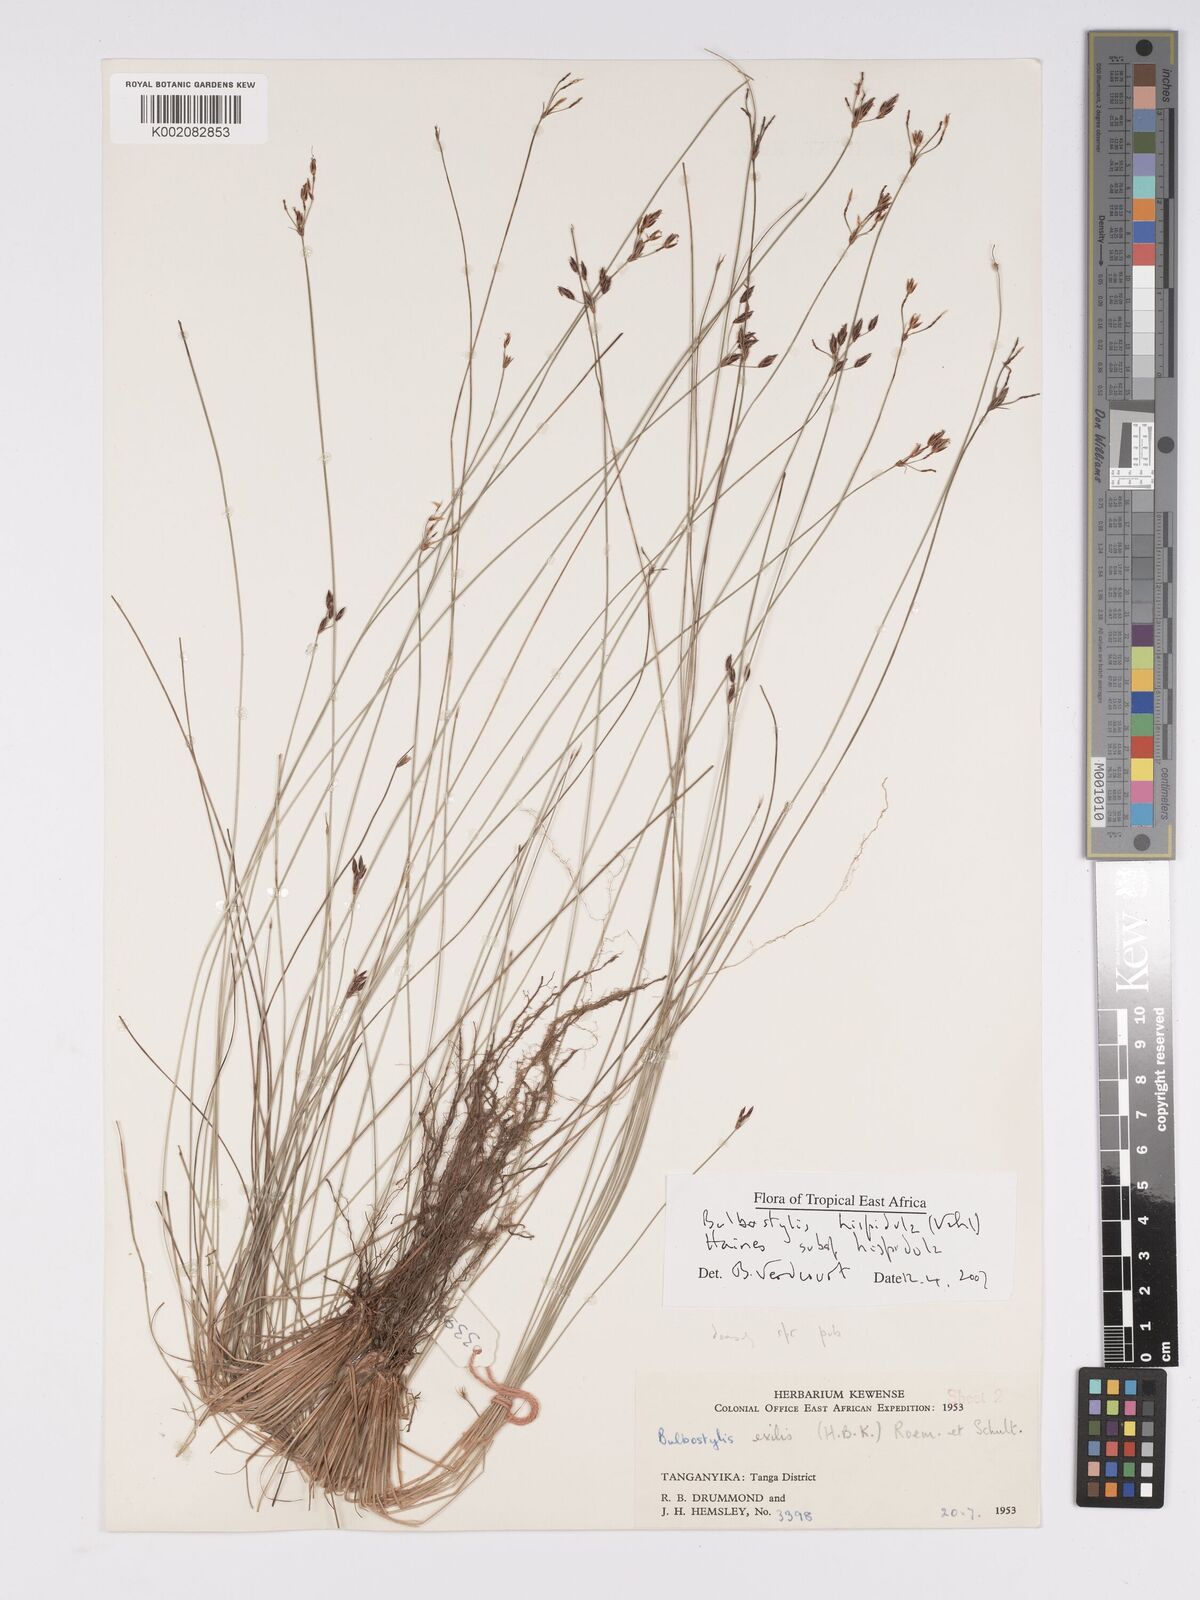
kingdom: Plantae
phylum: Tracheophyta
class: Liliopsida
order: Poales
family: Cyperaceae
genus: Bulbostylis
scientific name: Bulbostylis hispidula
